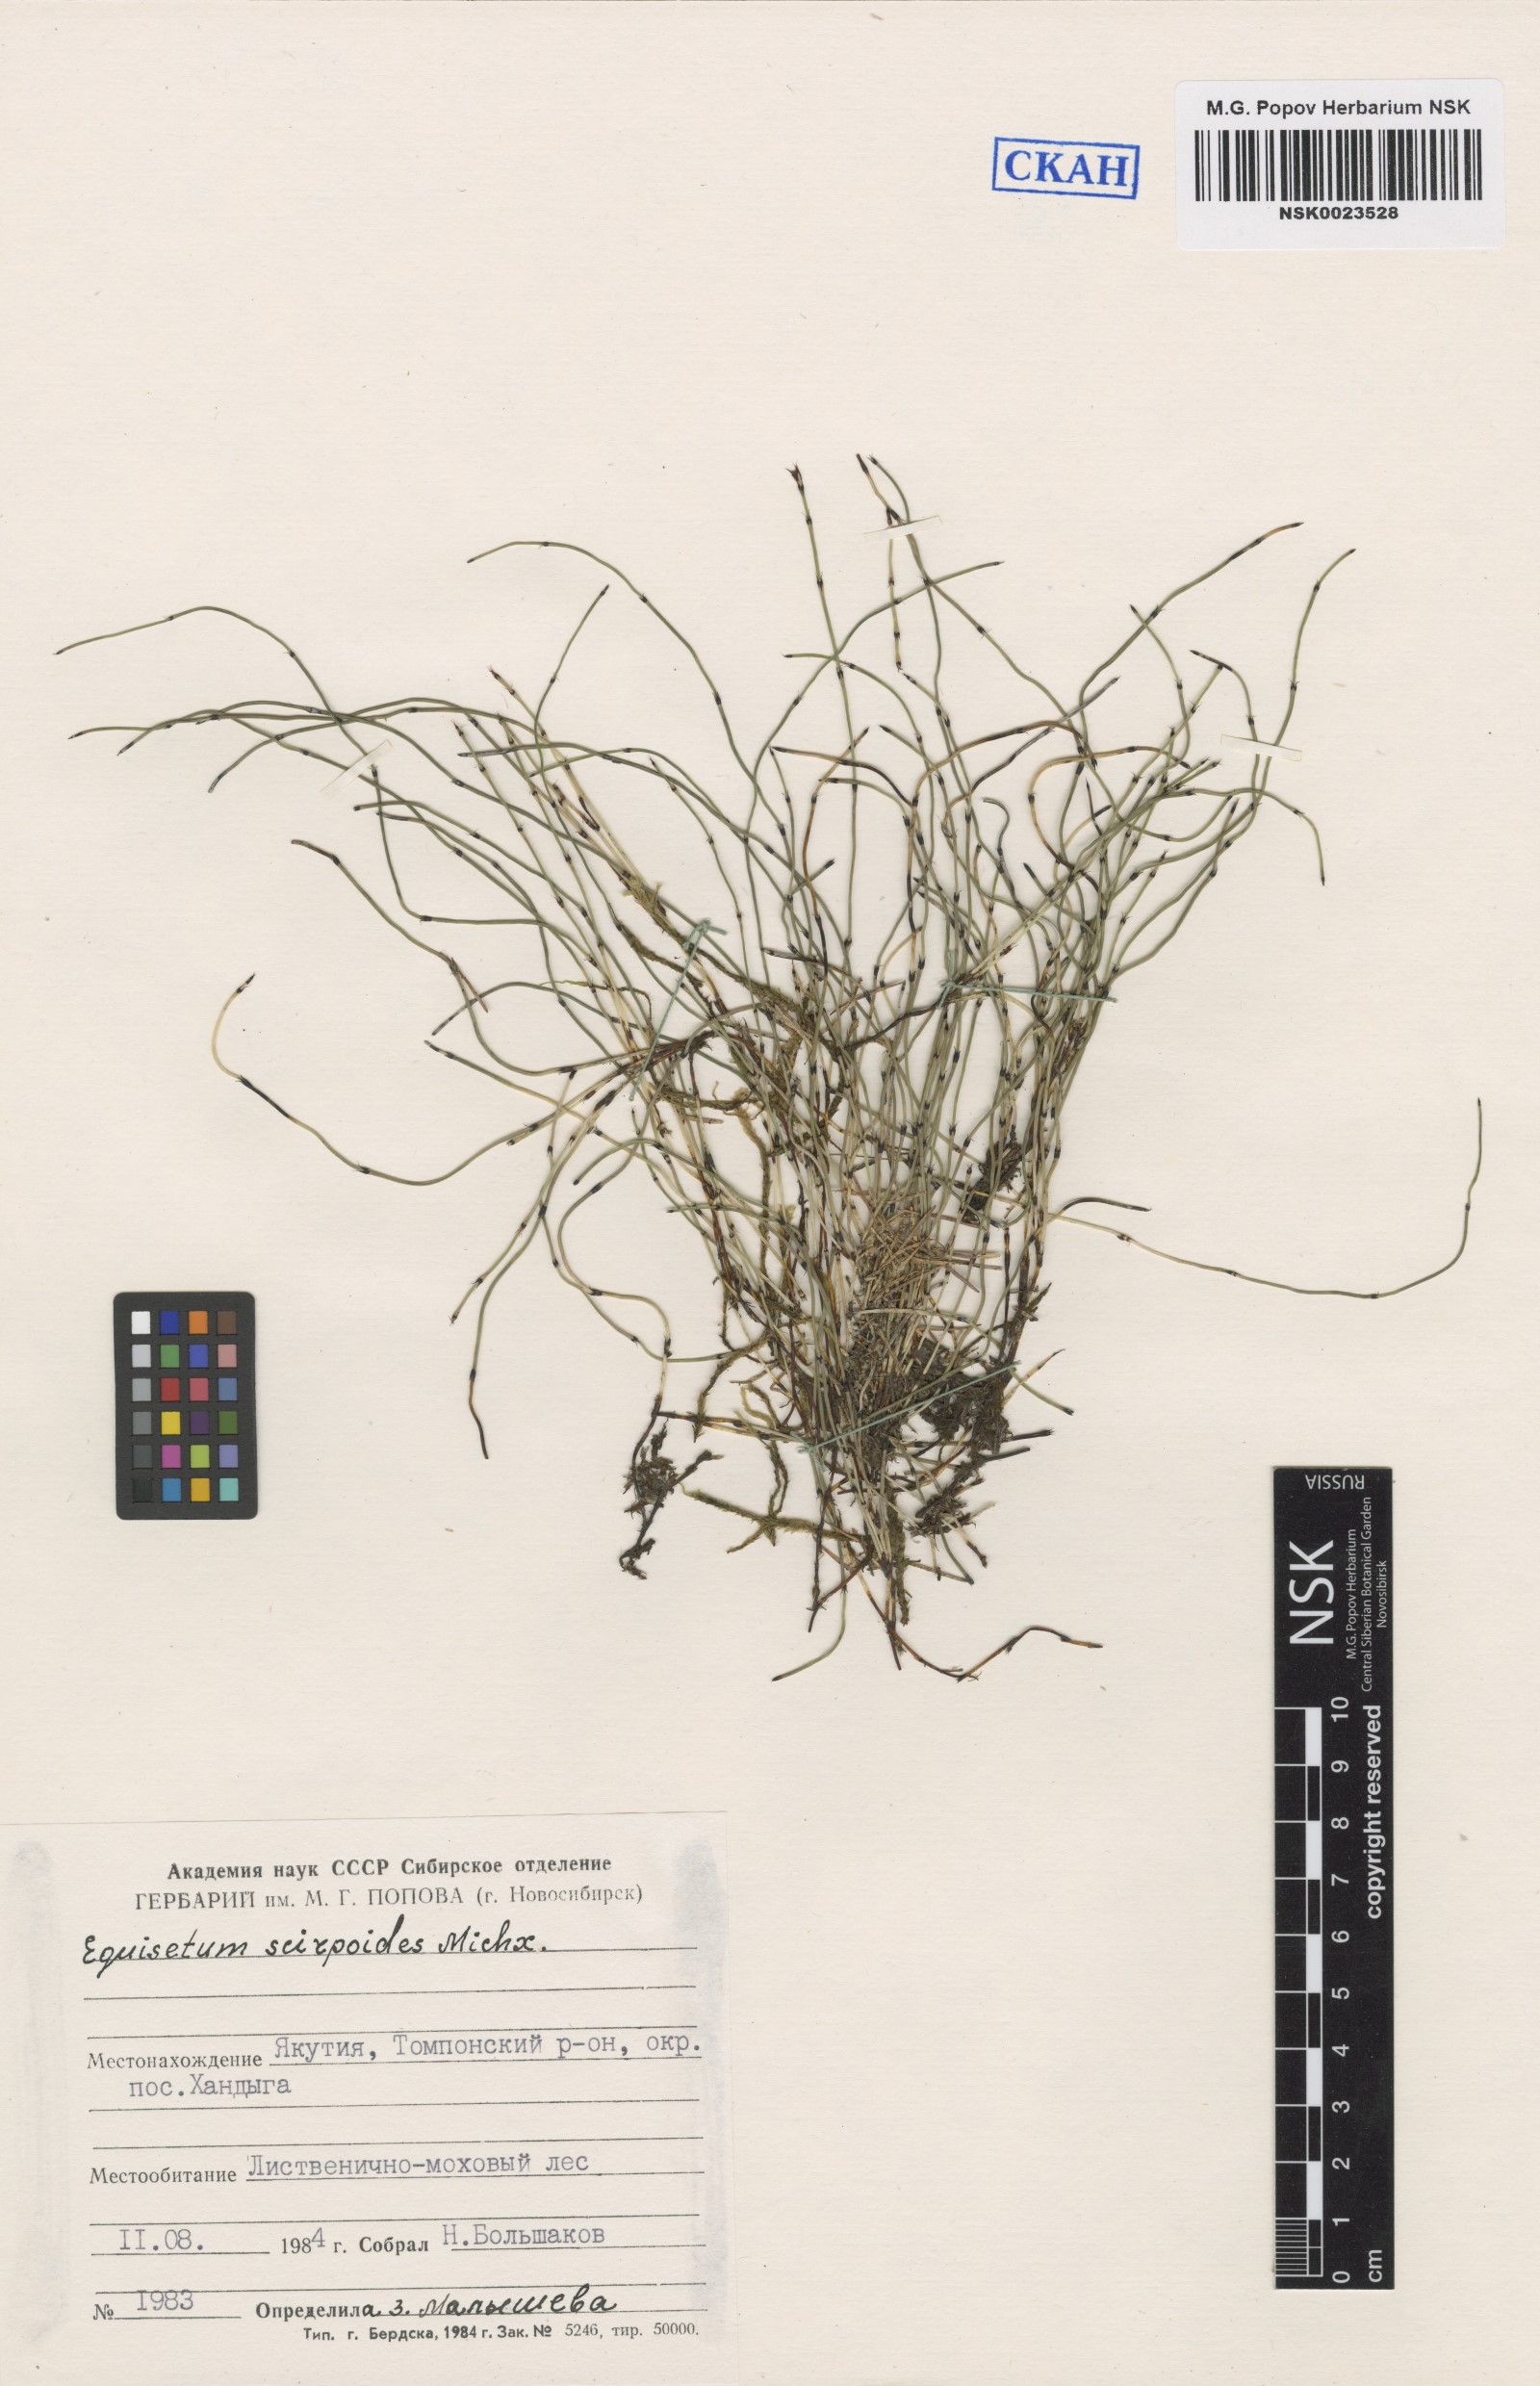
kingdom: Plantae
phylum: Tracheophyta
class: Polypodiopsida
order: Equisetales
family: Equisetaceae
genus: Equisetum
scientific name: Equisetum scirpoides
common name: Delicate horsetail
